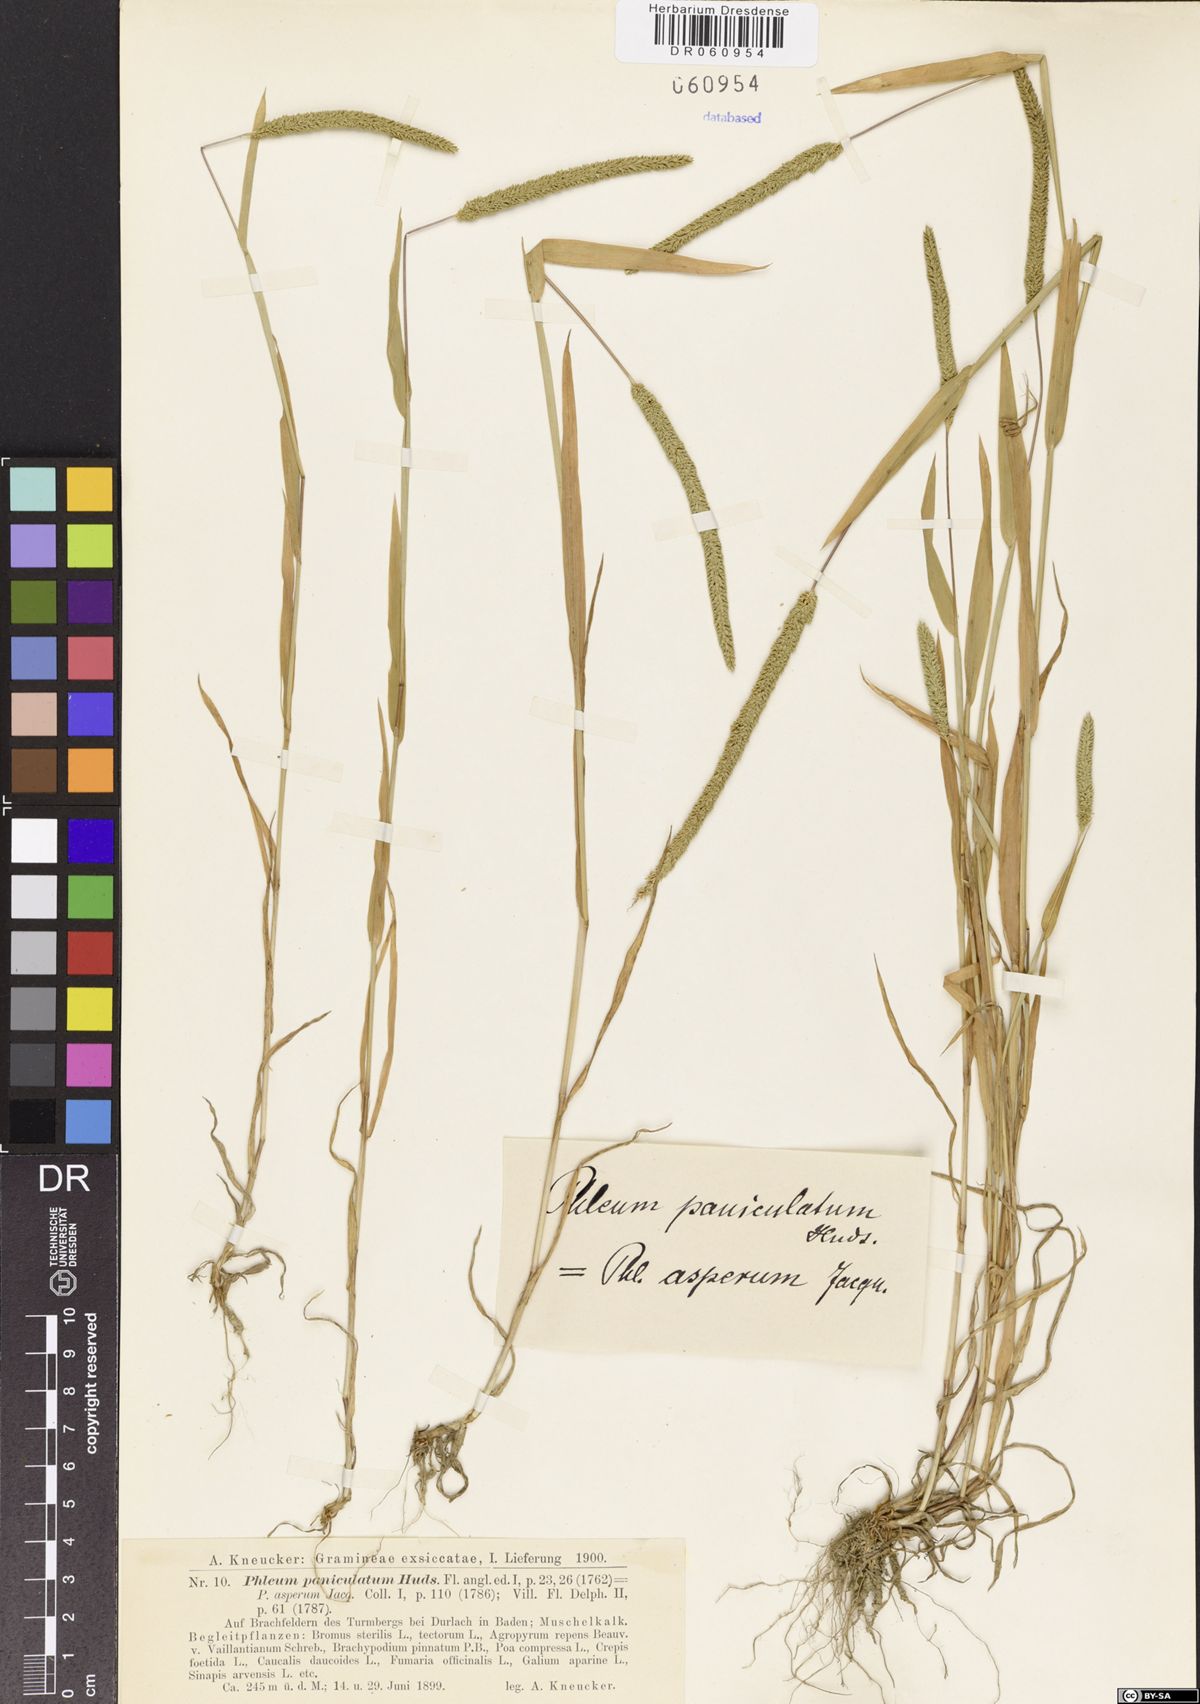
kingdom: Plantae
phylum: Tracheophyta
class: Liliopsida
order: Poales
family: Poaceae
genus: Phleum
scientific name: Phleum paniculatum
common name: British timothy
